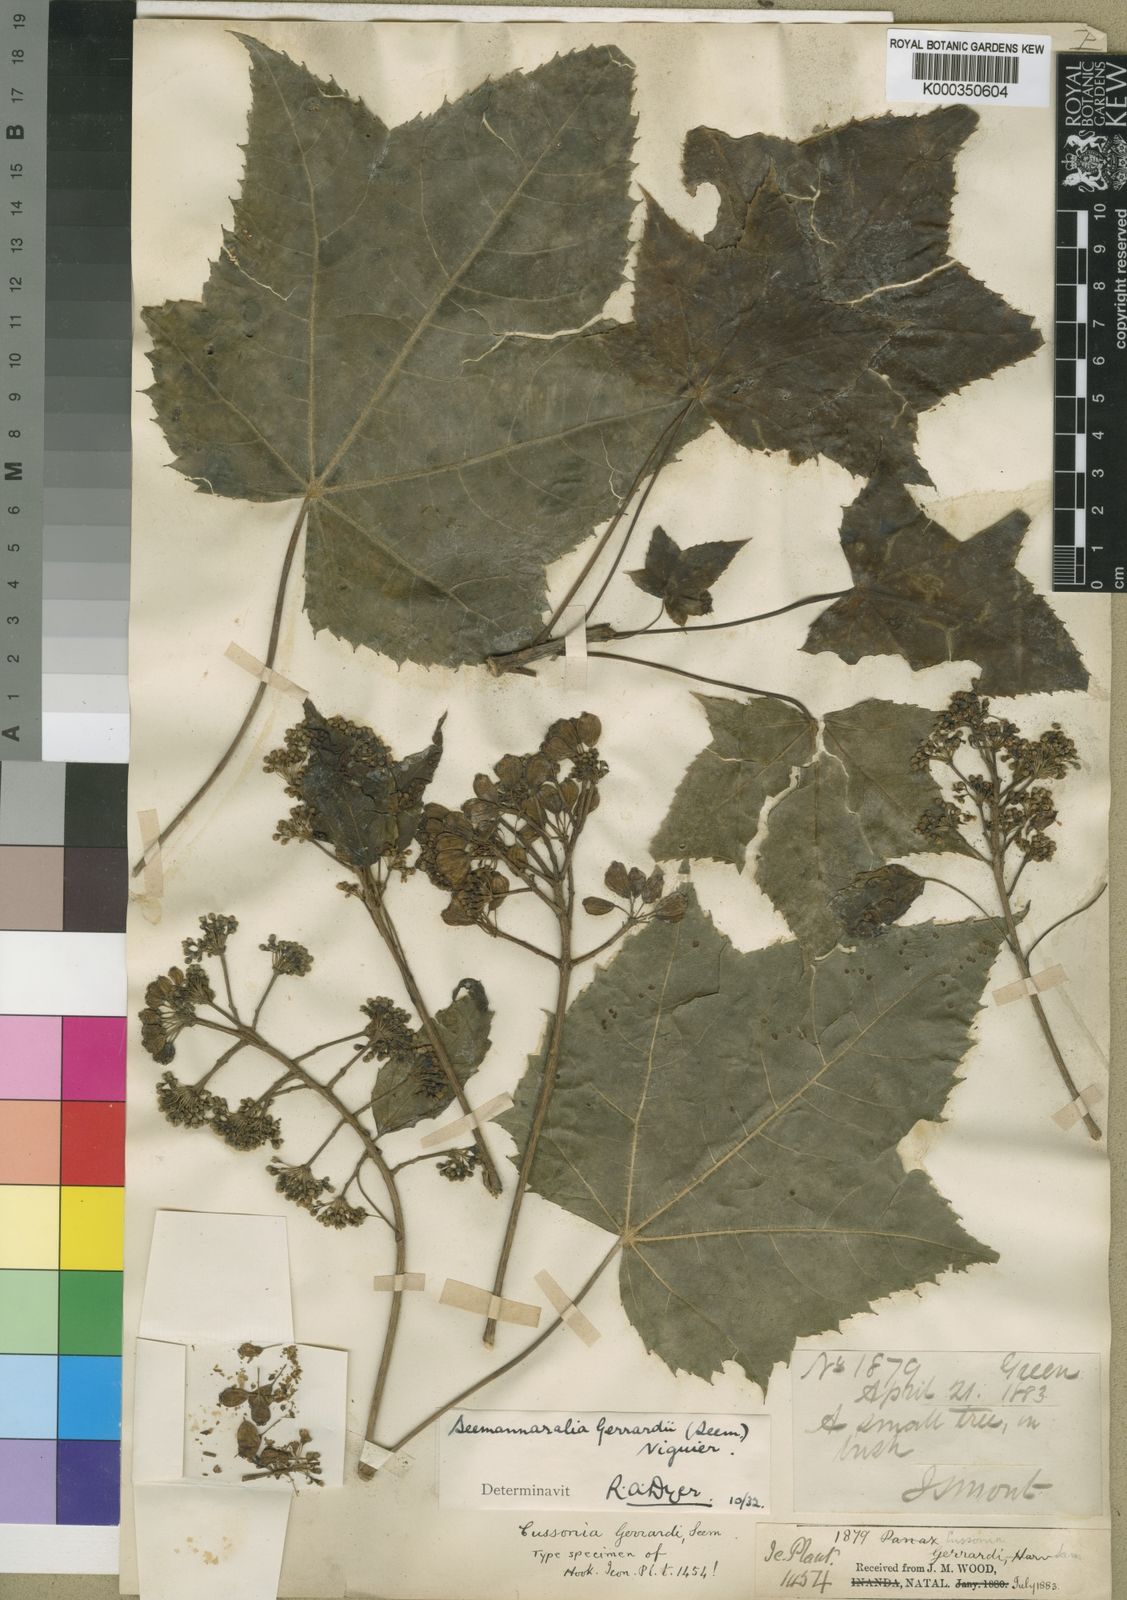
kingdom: Plantae
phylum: Tracheophyta
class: Magnoliopsida
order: Apiales
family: Araliaceae
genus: Seemannaralia
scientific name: Seemannaralia gerrardii
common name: Wild-maple
